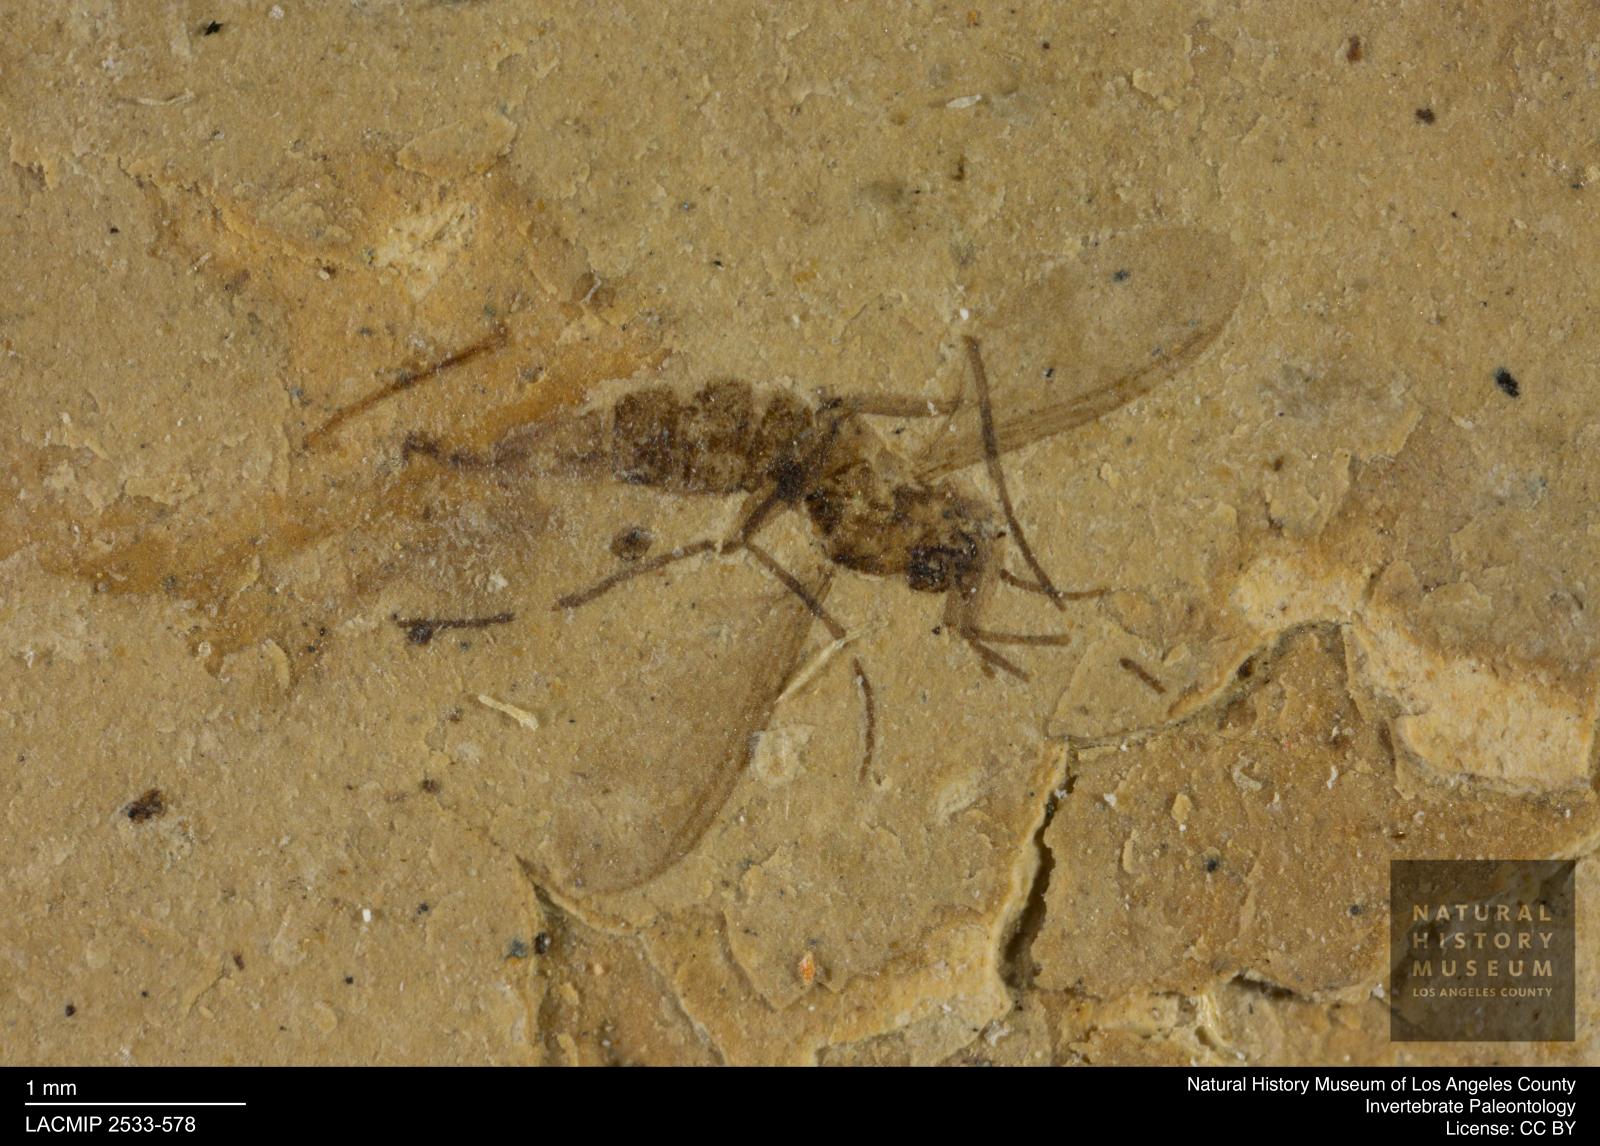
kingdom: Animalia
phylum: Arthropoda
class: Insecta
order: Diptera
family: Sciaridae
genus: Sciara
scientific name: Sciara gracilenta
